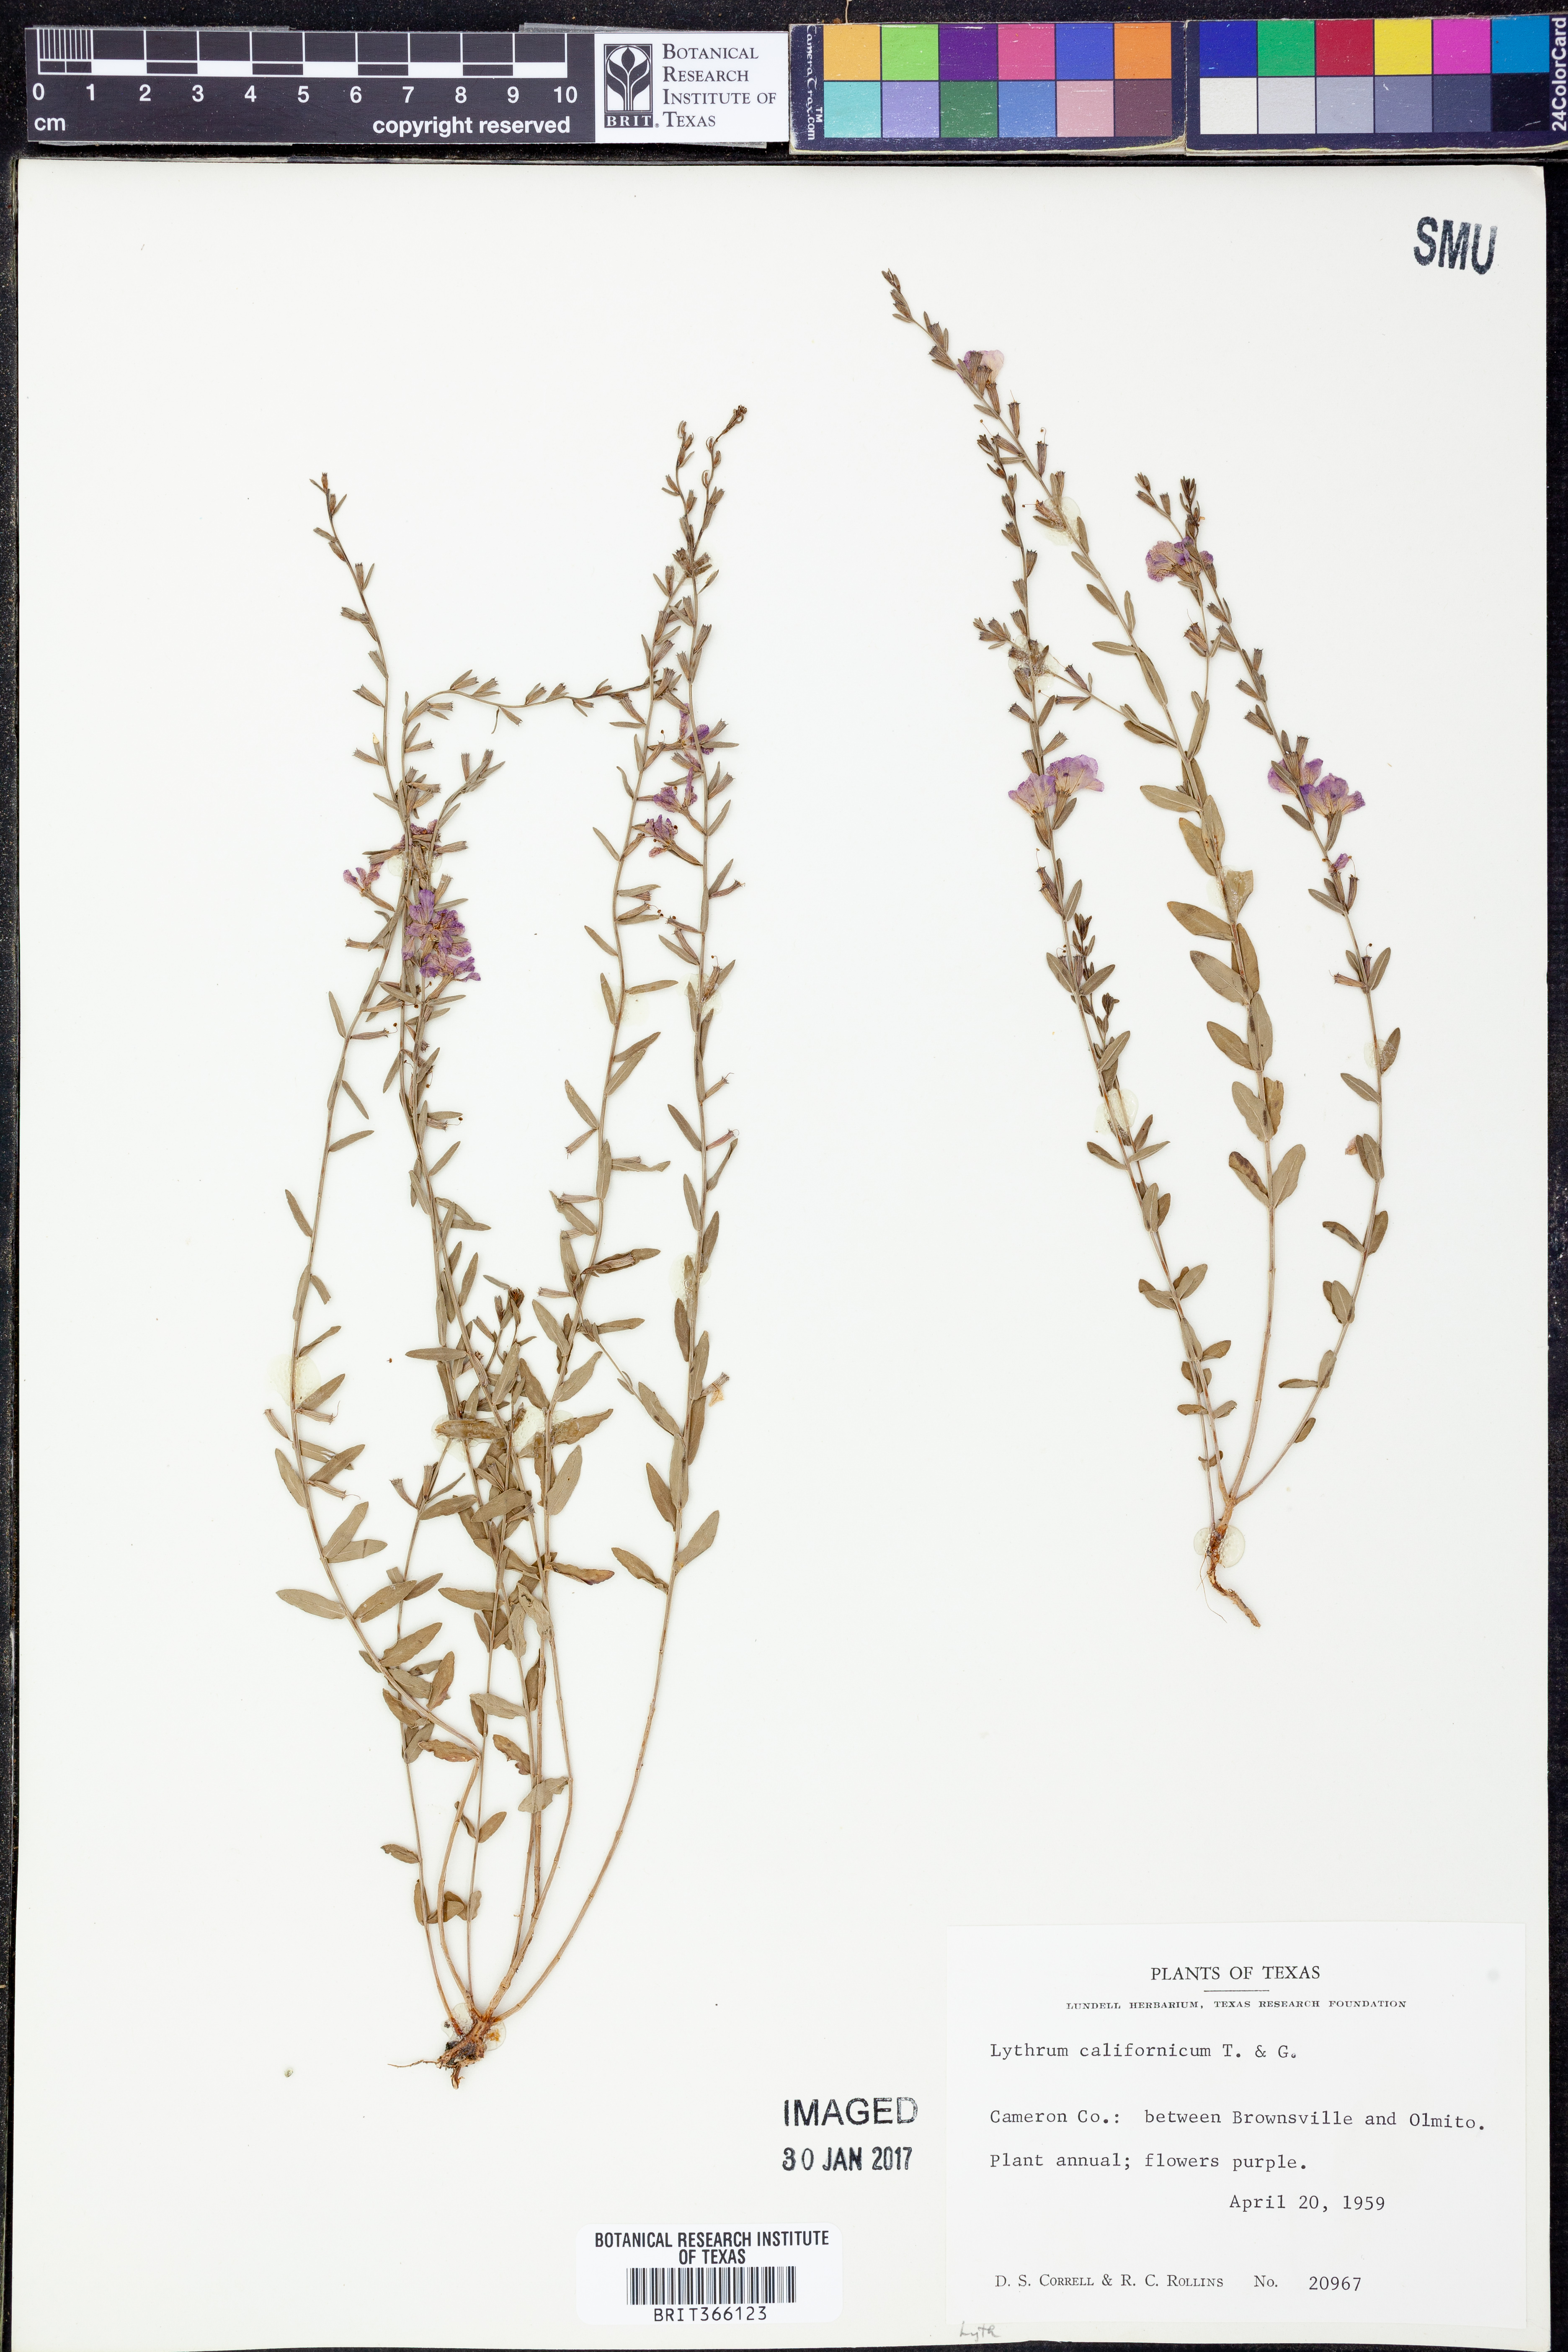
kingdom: Plantae
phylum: Tracheophyta
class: Magnoliopsida
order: Myrtales
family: Lythraceae
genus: Lythrum
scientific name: Lythrum californicum
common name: California loosestrife
